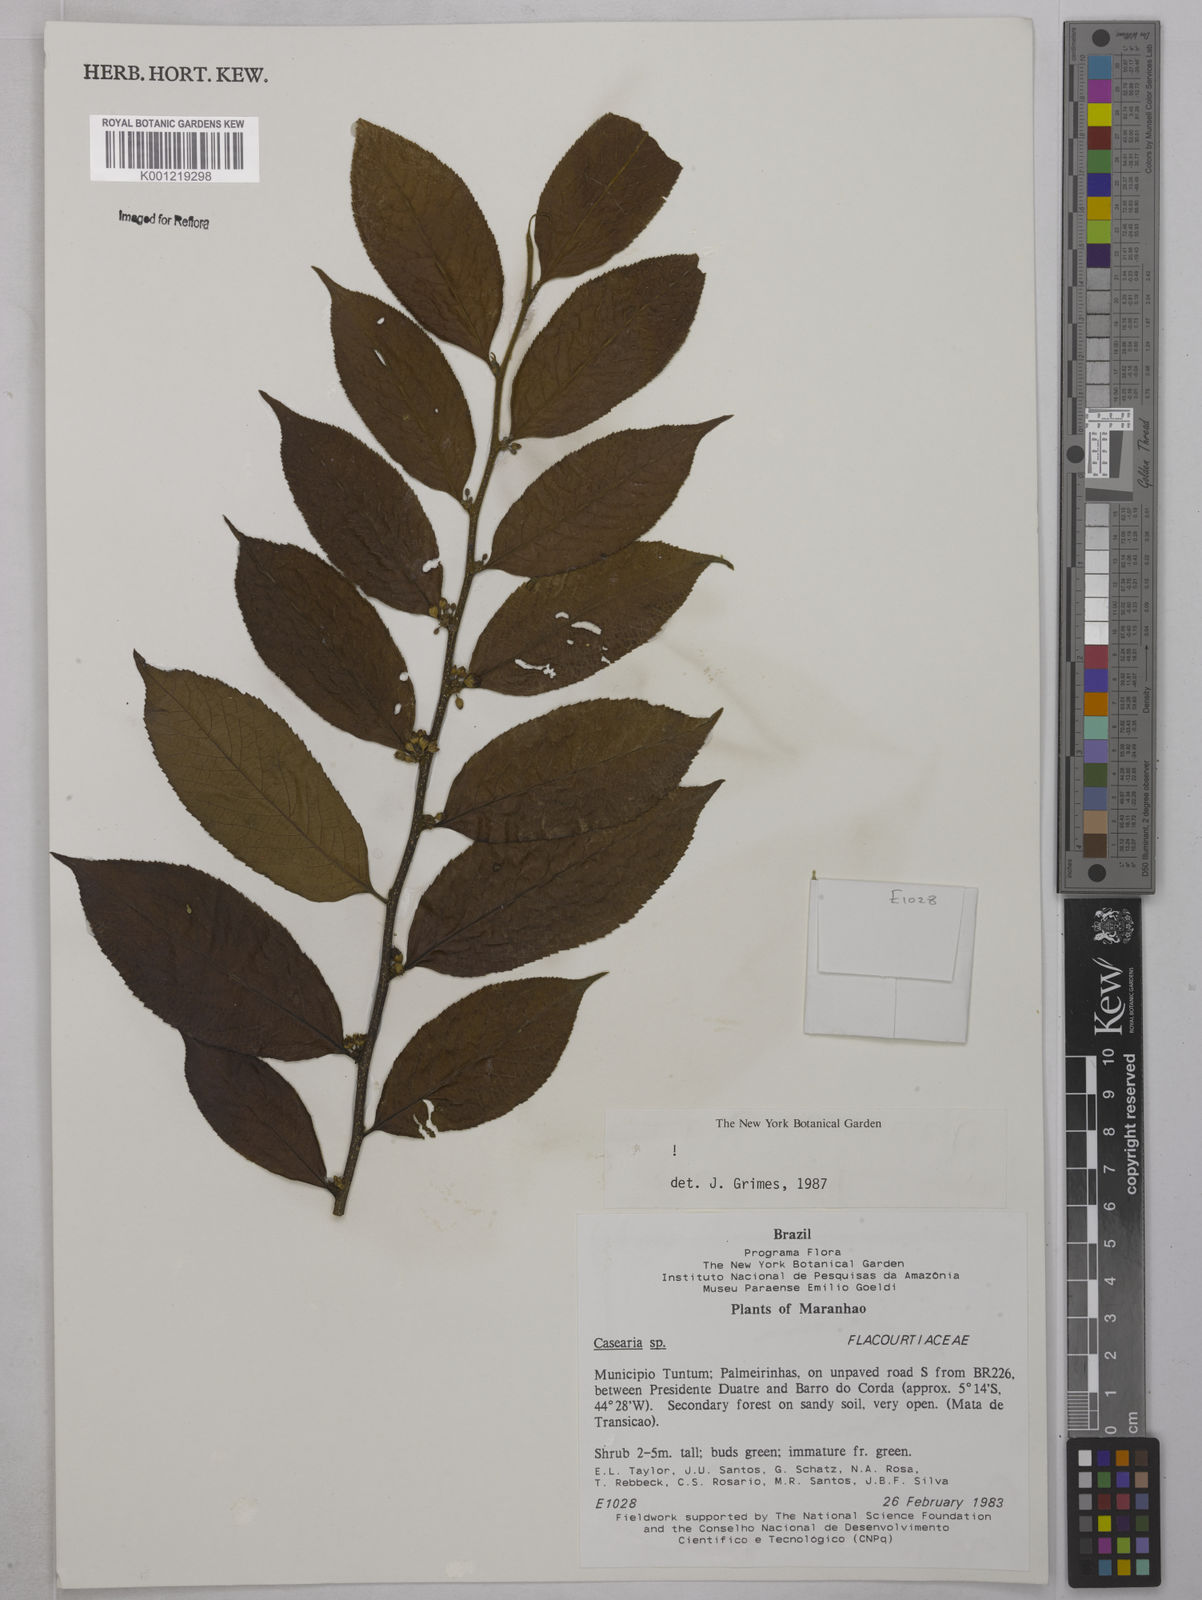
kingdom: Plantae
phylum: Tracheophyta
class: Magnoliopsida
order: Malpighiales
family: Salicaceae
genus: Casearia
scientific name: Casearia
